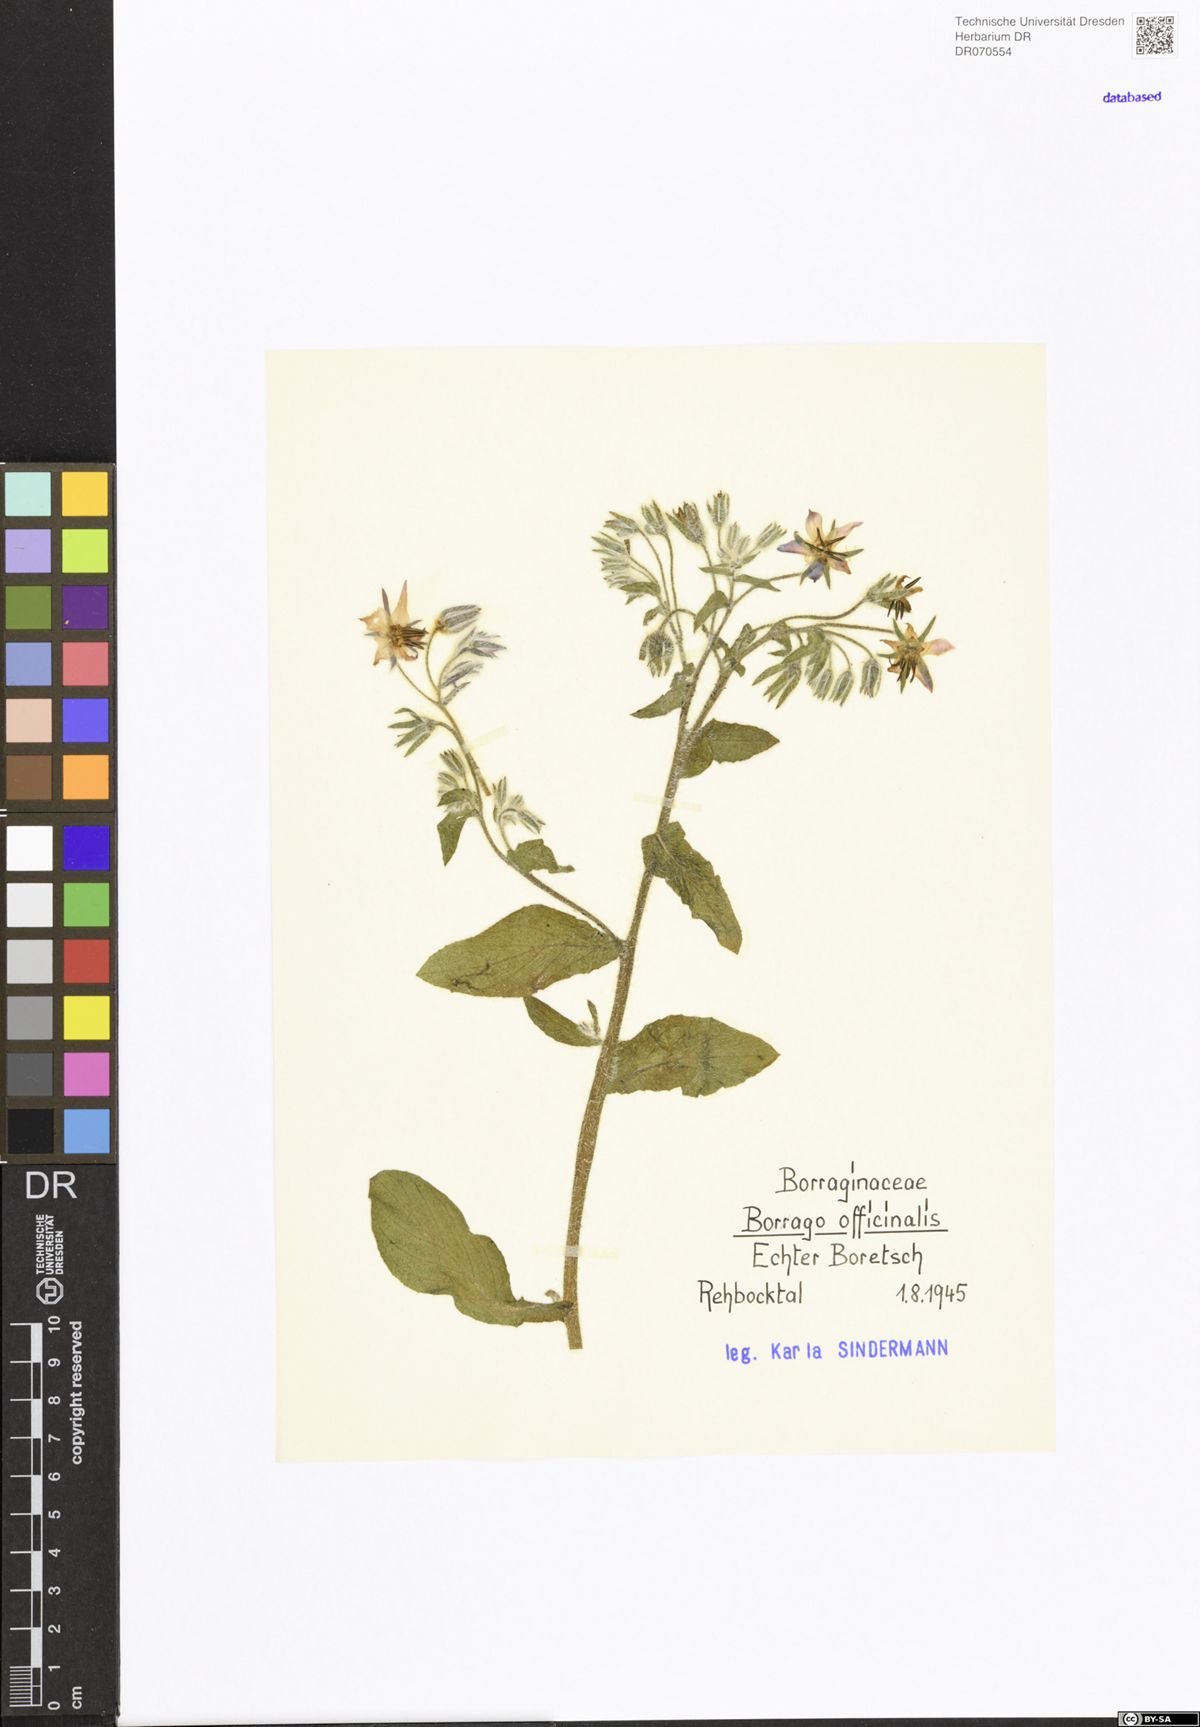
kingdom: Plantae
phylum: Tracheophyta
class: Magnoliopsida
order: Boraginales
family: Boraginaceae
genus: Borago
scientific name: Borago officinalis
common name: Borage
